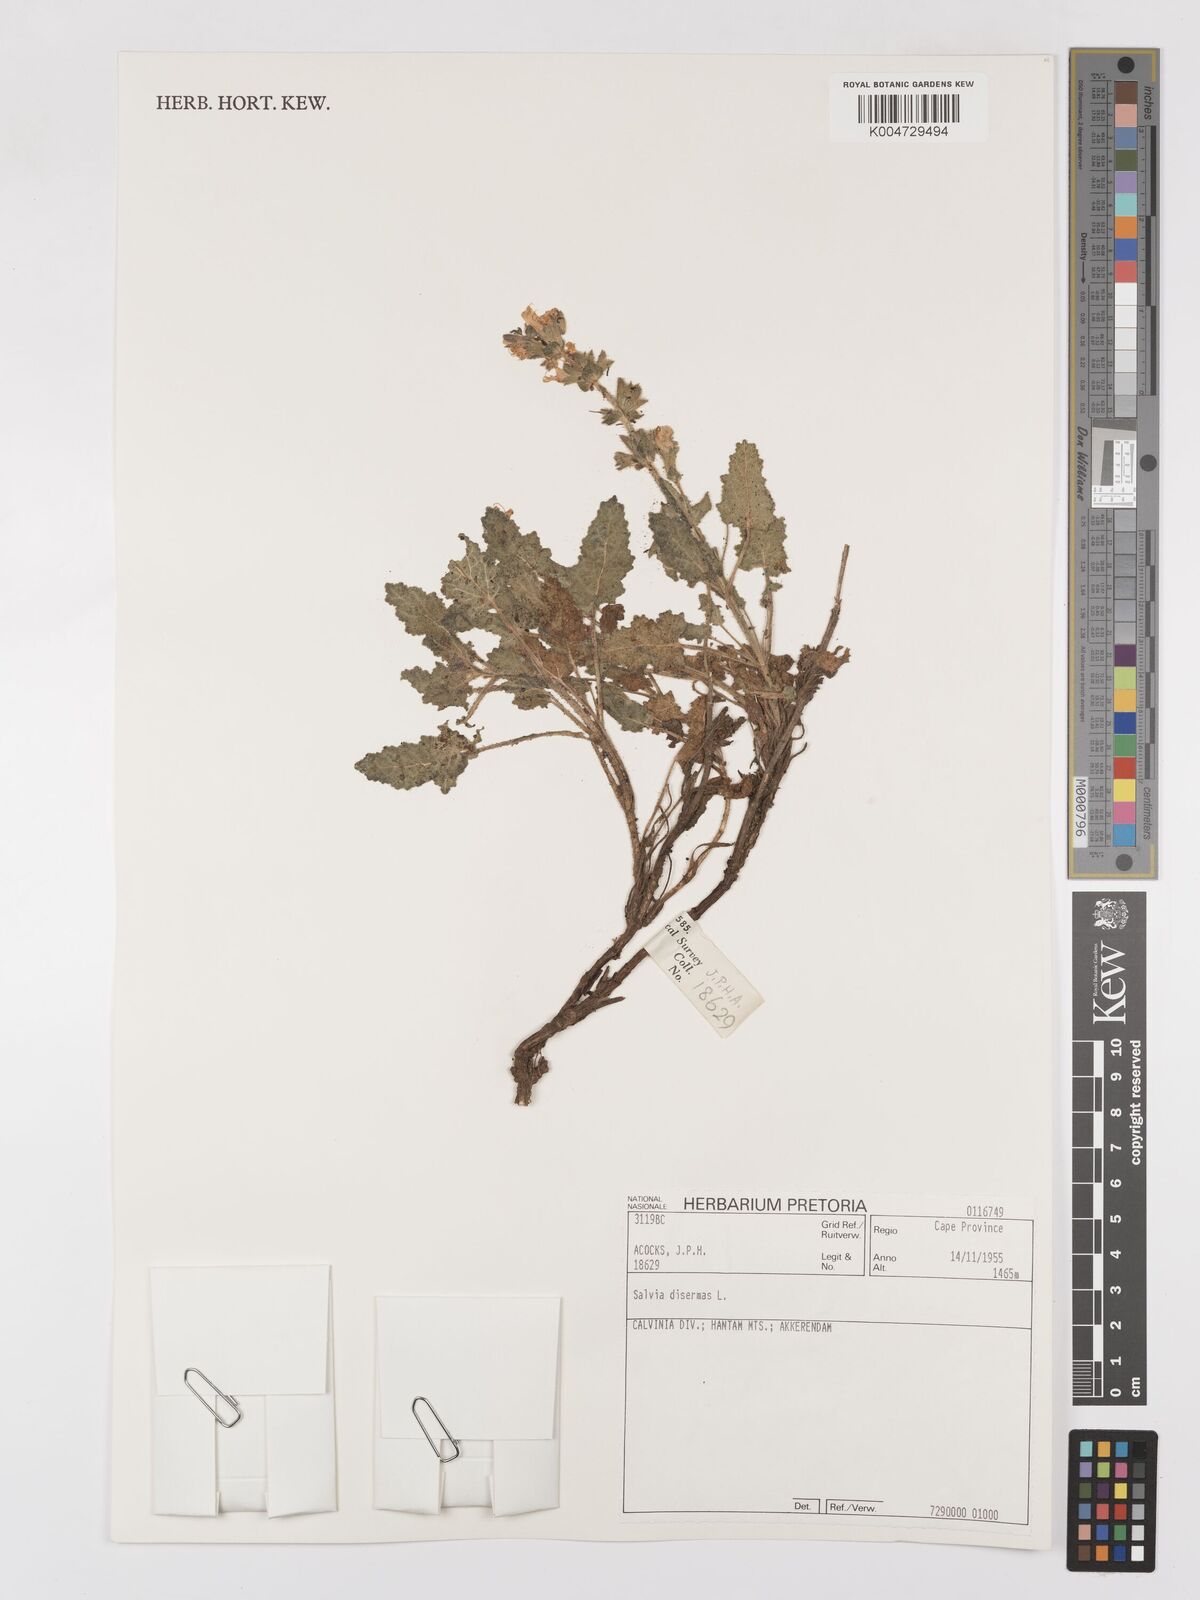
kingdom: Plantae
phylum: Tracheophyta
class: Magnoliopsida
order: Lamiales
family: Lamiaceae
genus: Salvia
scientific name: Salvia
